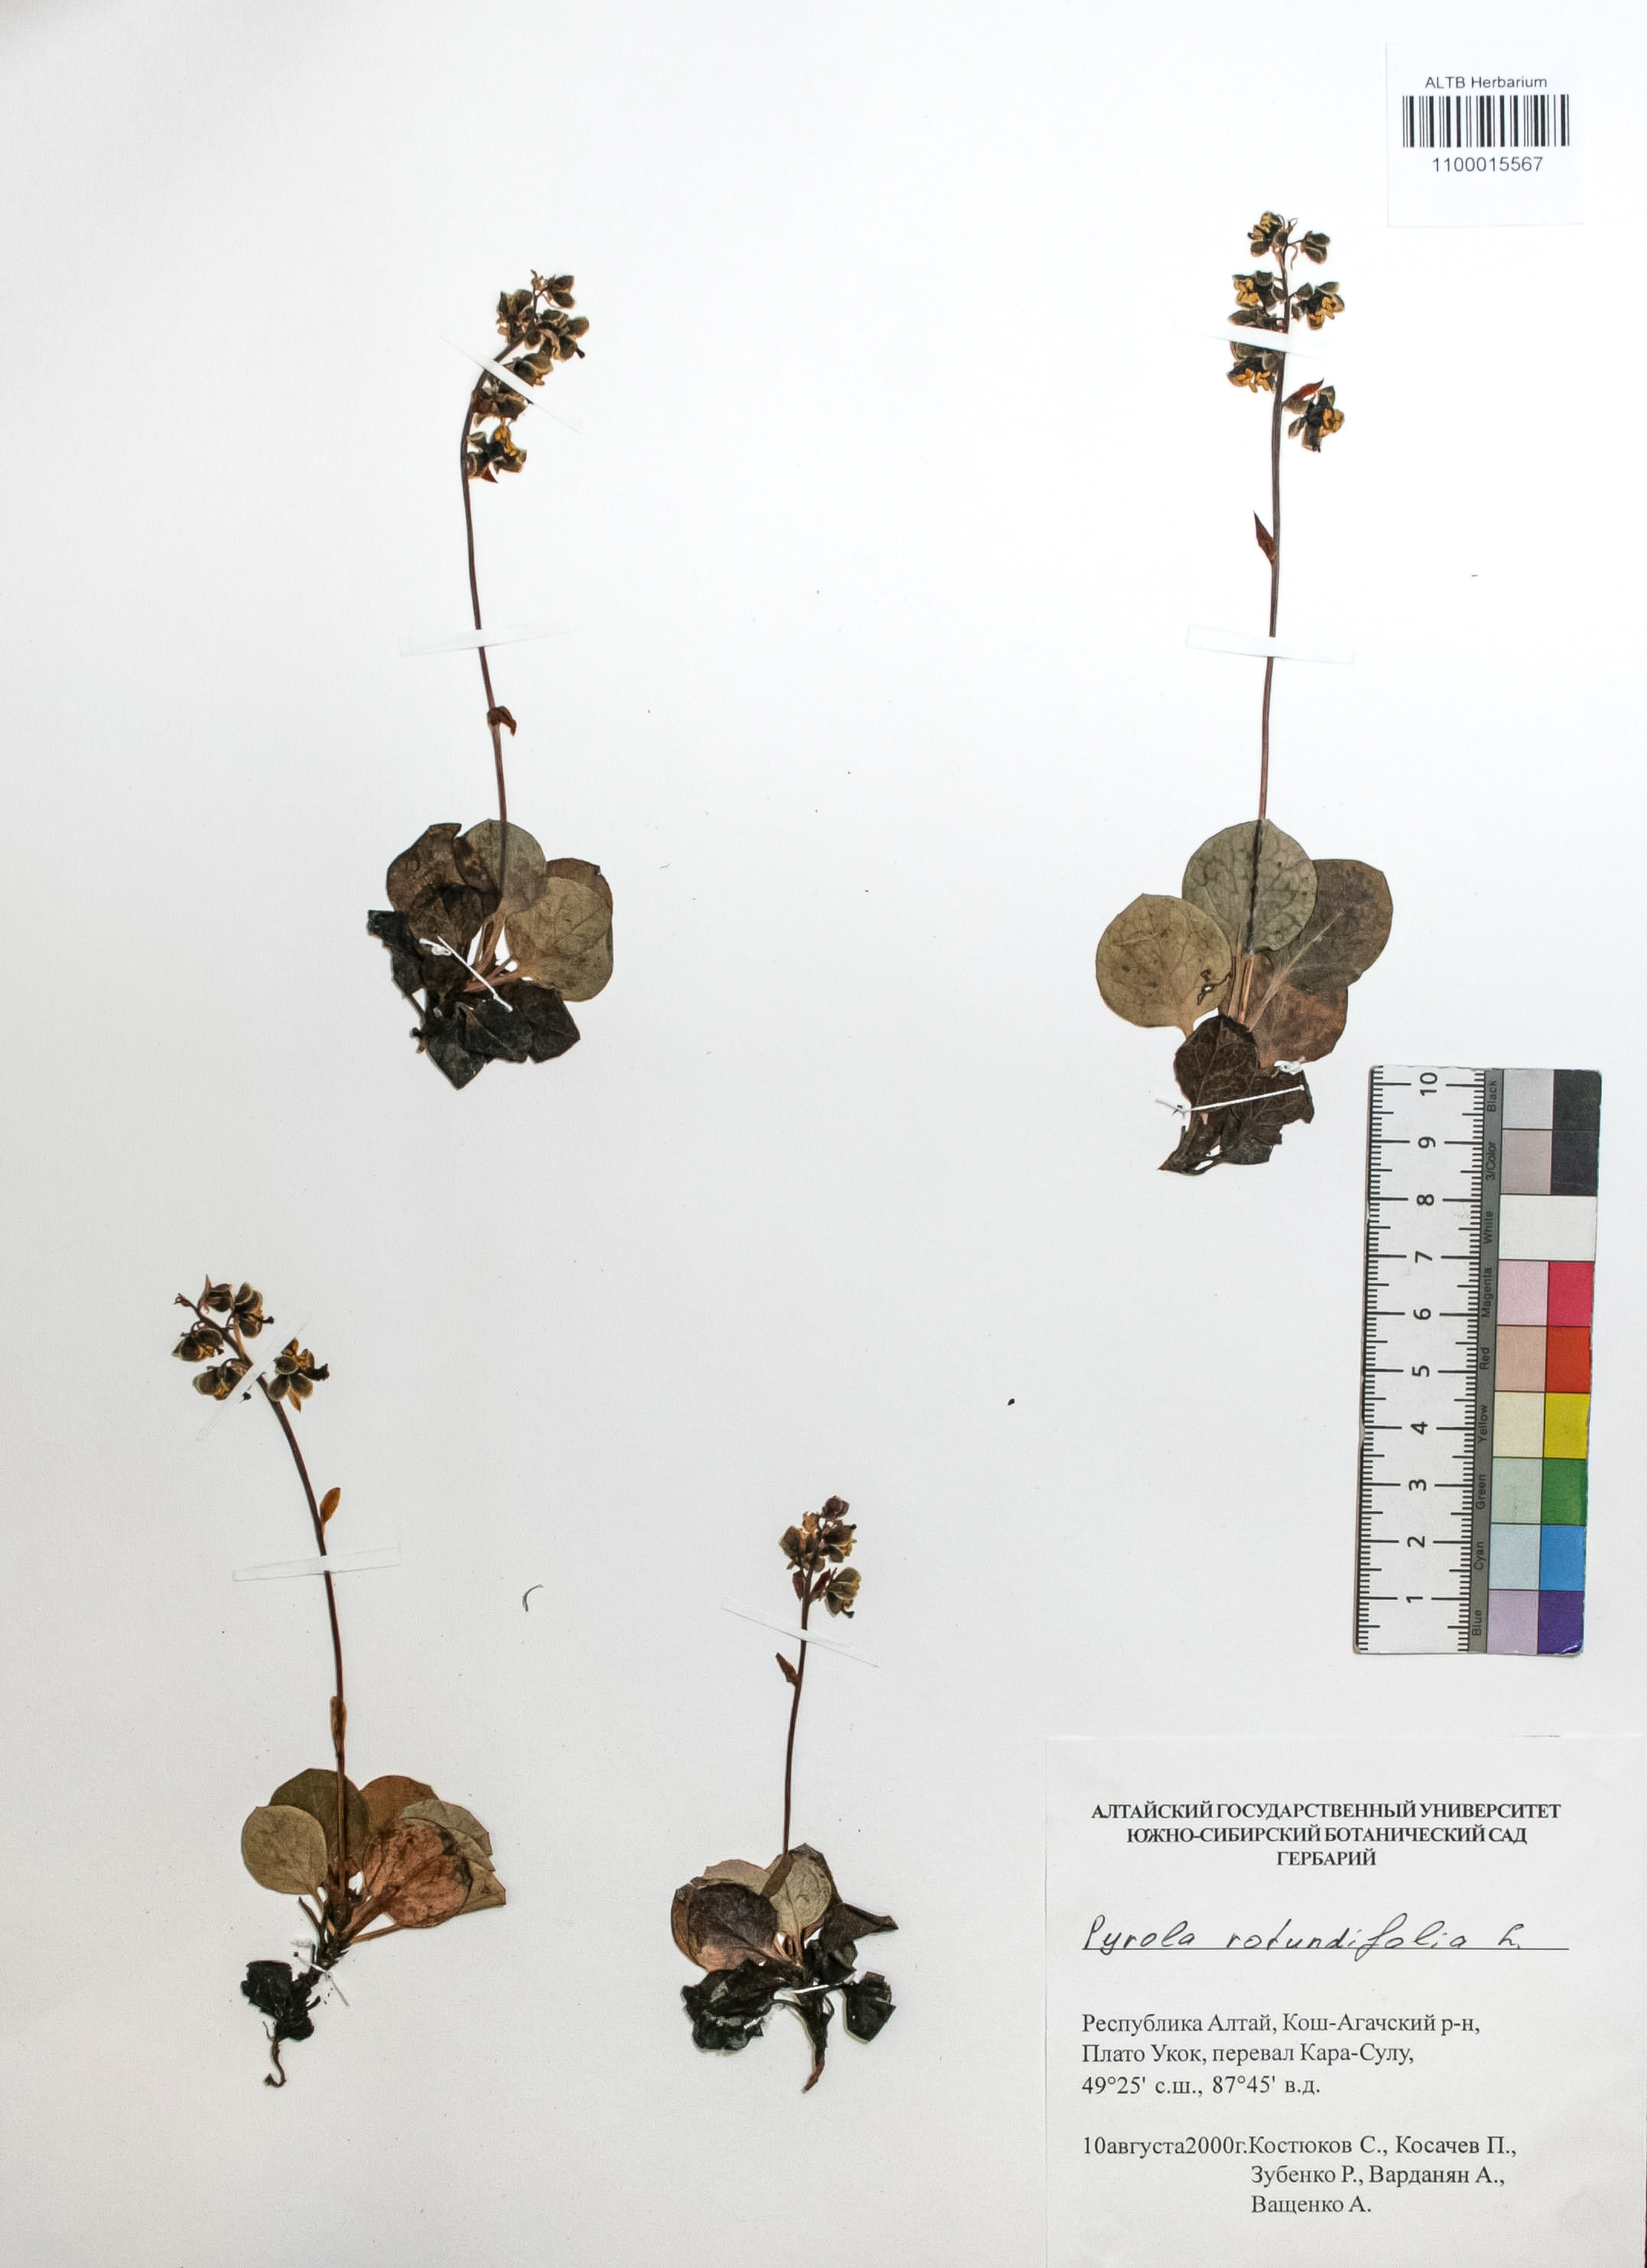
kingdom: Plantae
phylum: Tracheophyta
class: Magnoliopsida
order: Ericales
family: Ericaceae
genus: Pyrola
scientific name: Pyrola rotundifolia
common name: Round-leaved wintergreen
